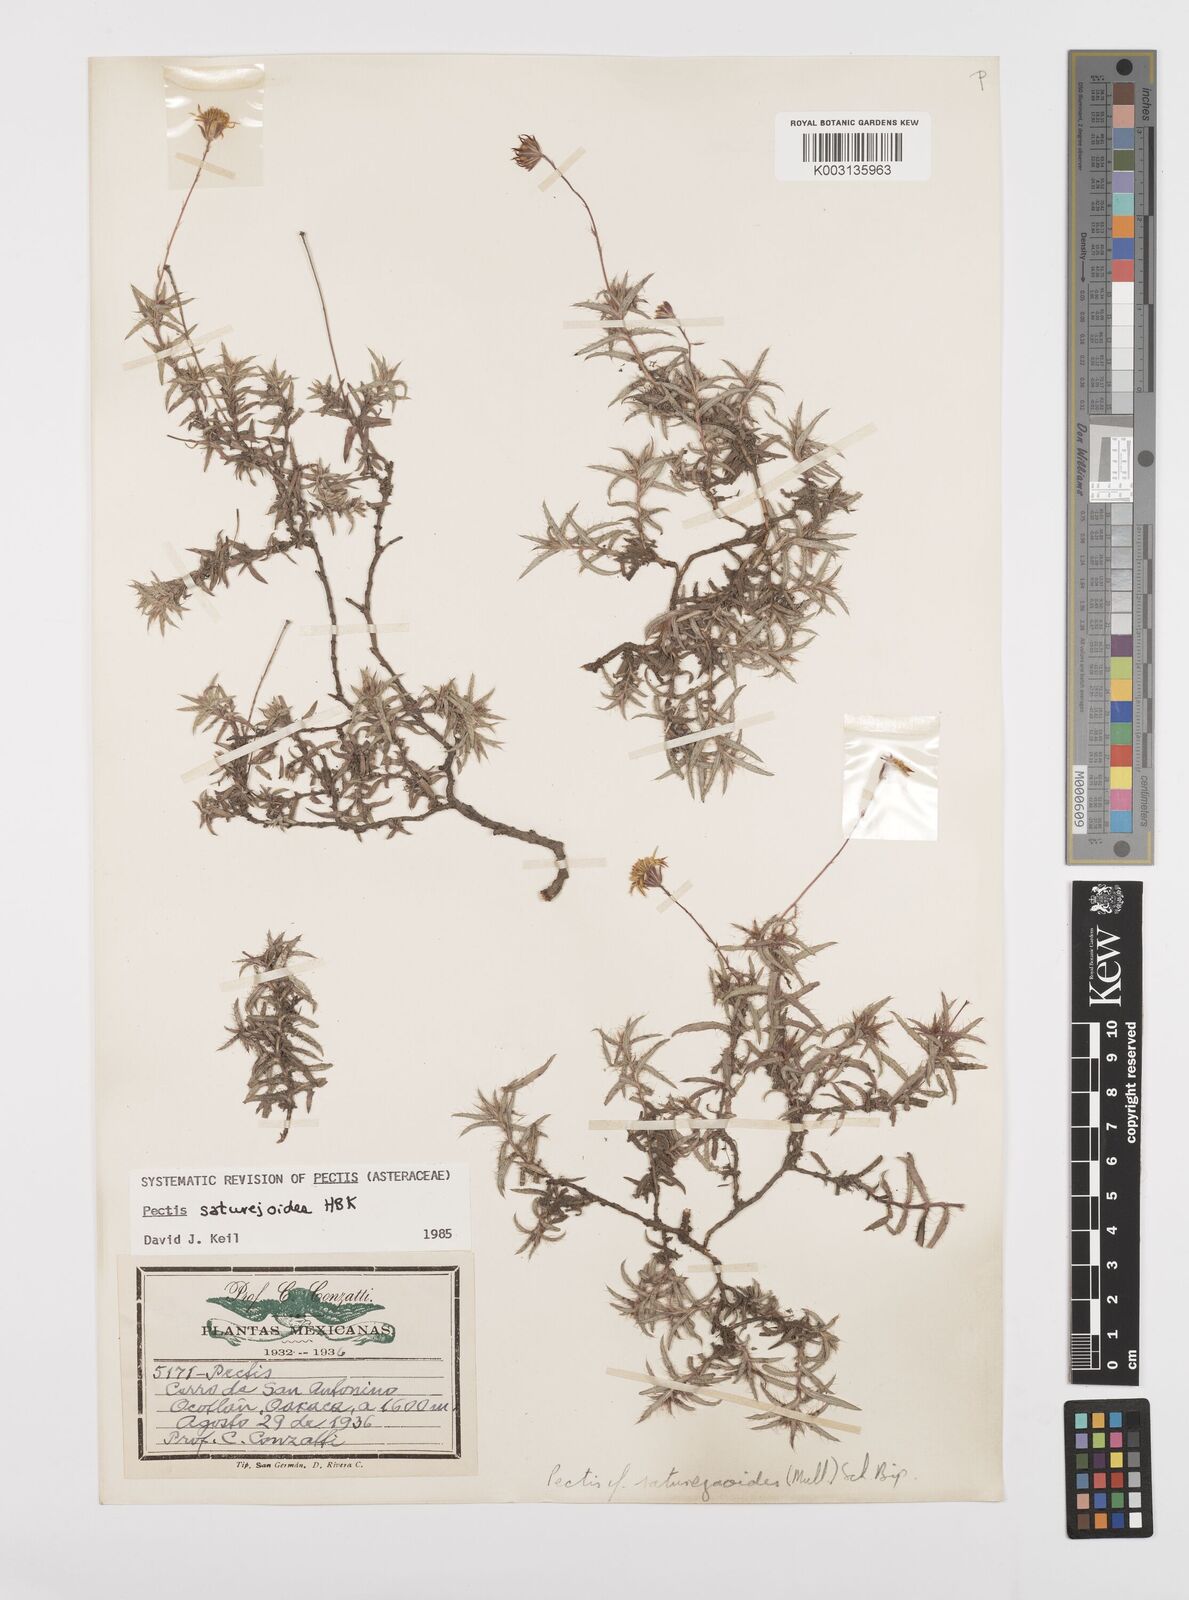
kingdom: Plantae
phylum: Tracheophyta
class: Magnoliopsida
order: Asterales
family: Asteraceae
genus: Pectis
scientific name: Pectis saturejoides
